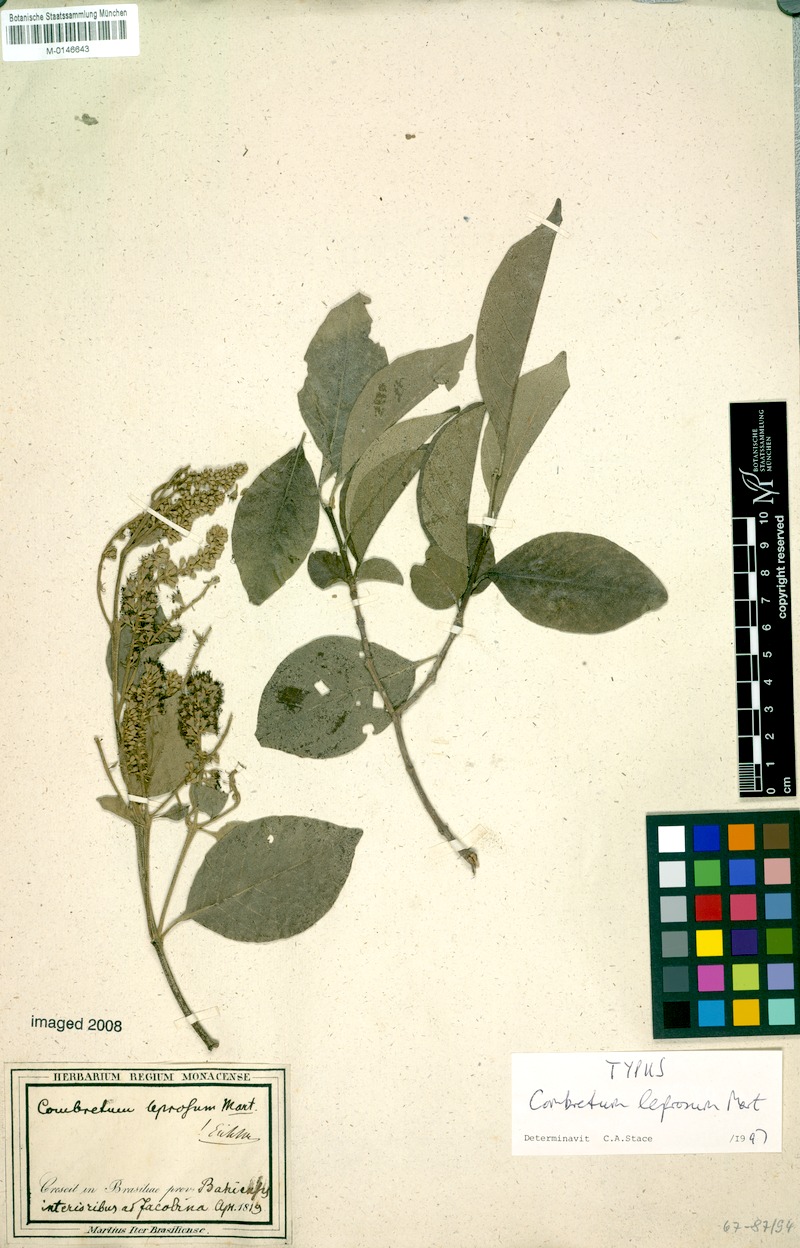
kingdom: Plantae
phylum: Tracheophyta
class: Magnoliopsida
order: Myrtales
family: Combretaceae
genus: Combretum
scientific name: Combretum leprosum
